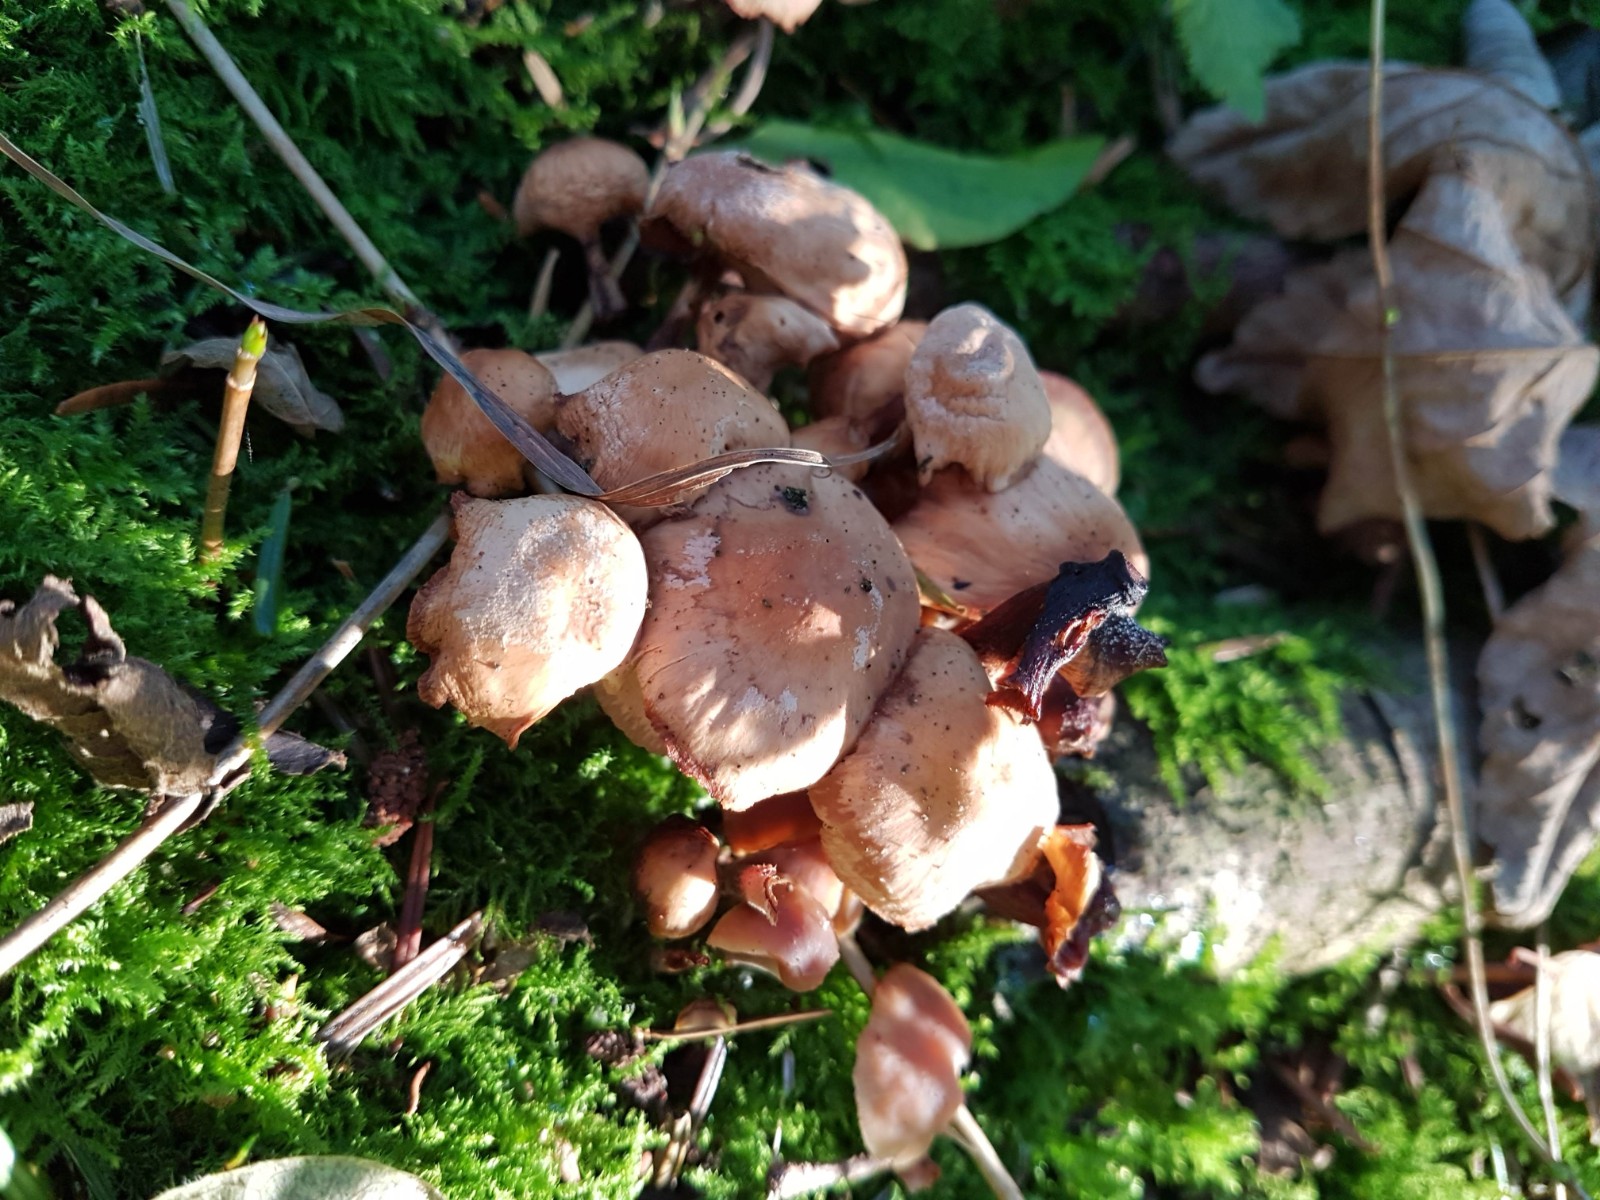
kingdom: Fungi
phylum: Basidiomycota
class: Agaricomycetes
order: Agaricales
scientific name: Agaricales
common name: champignonordenen
